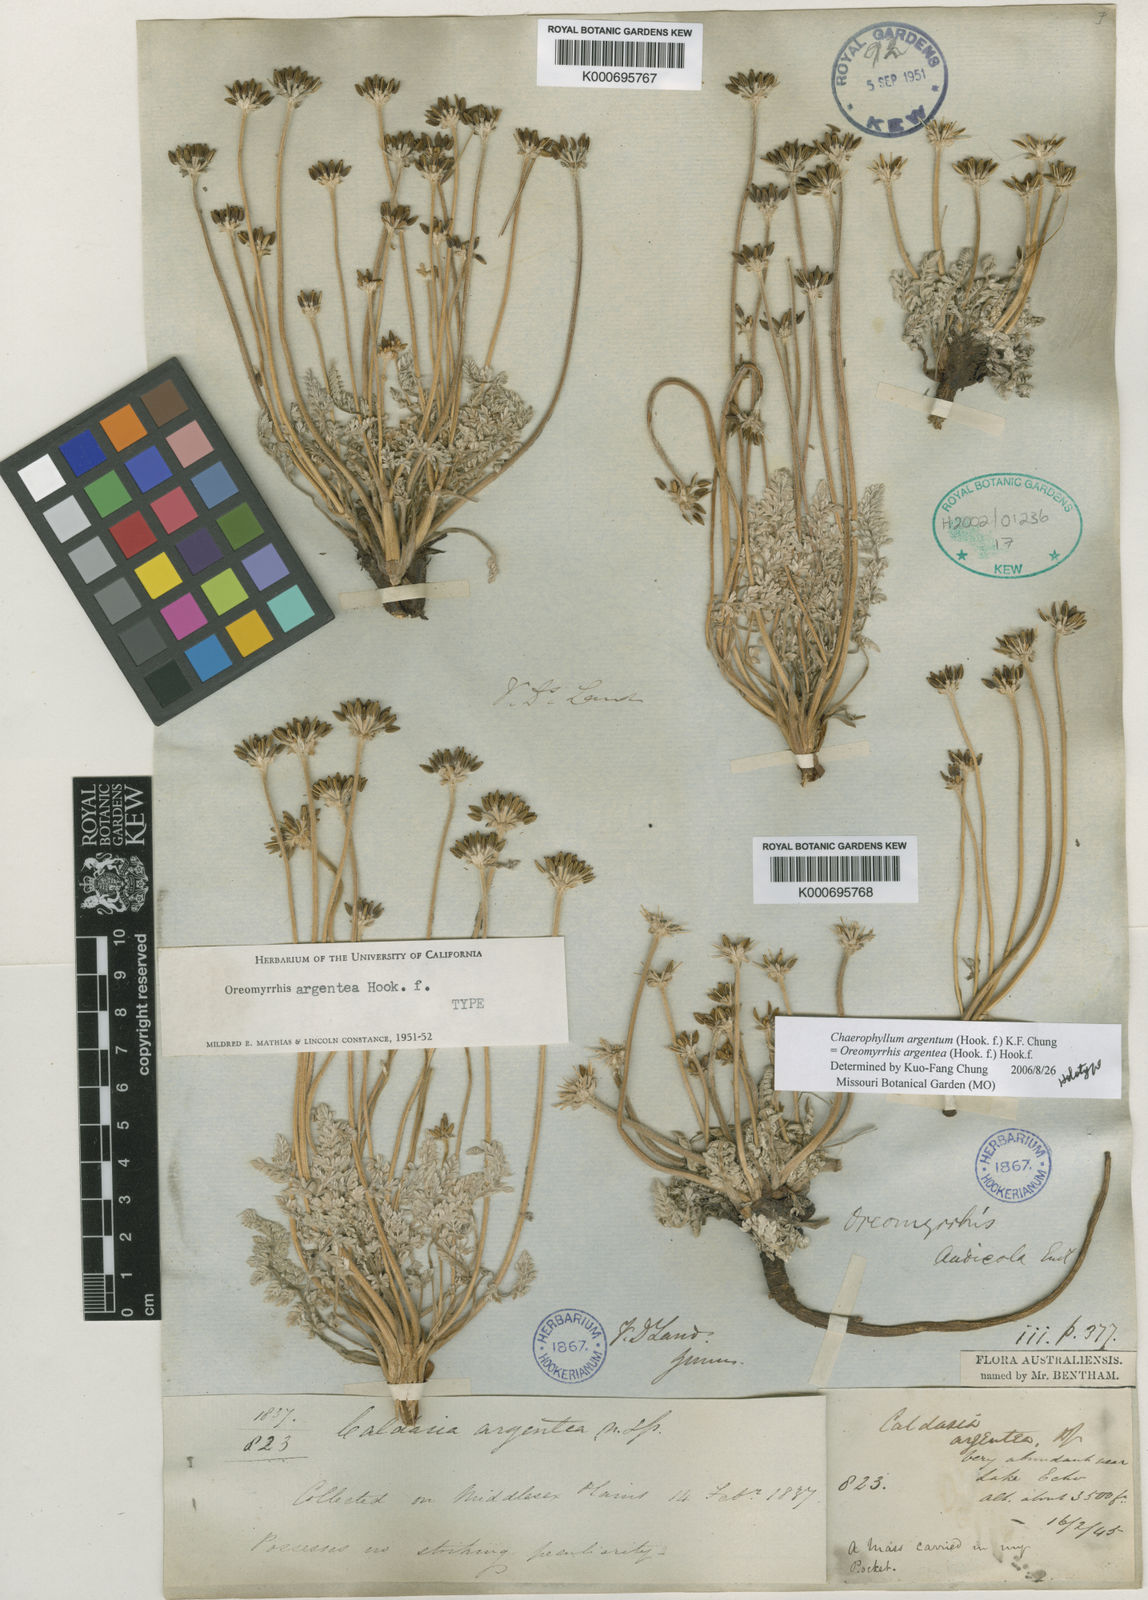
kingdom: Plantae
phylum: Tracheophyta
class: Magnoliopsida
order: Apiales
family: Apiaceae
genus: Chaerophyllum
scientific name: Chaerophyllum argenteum
